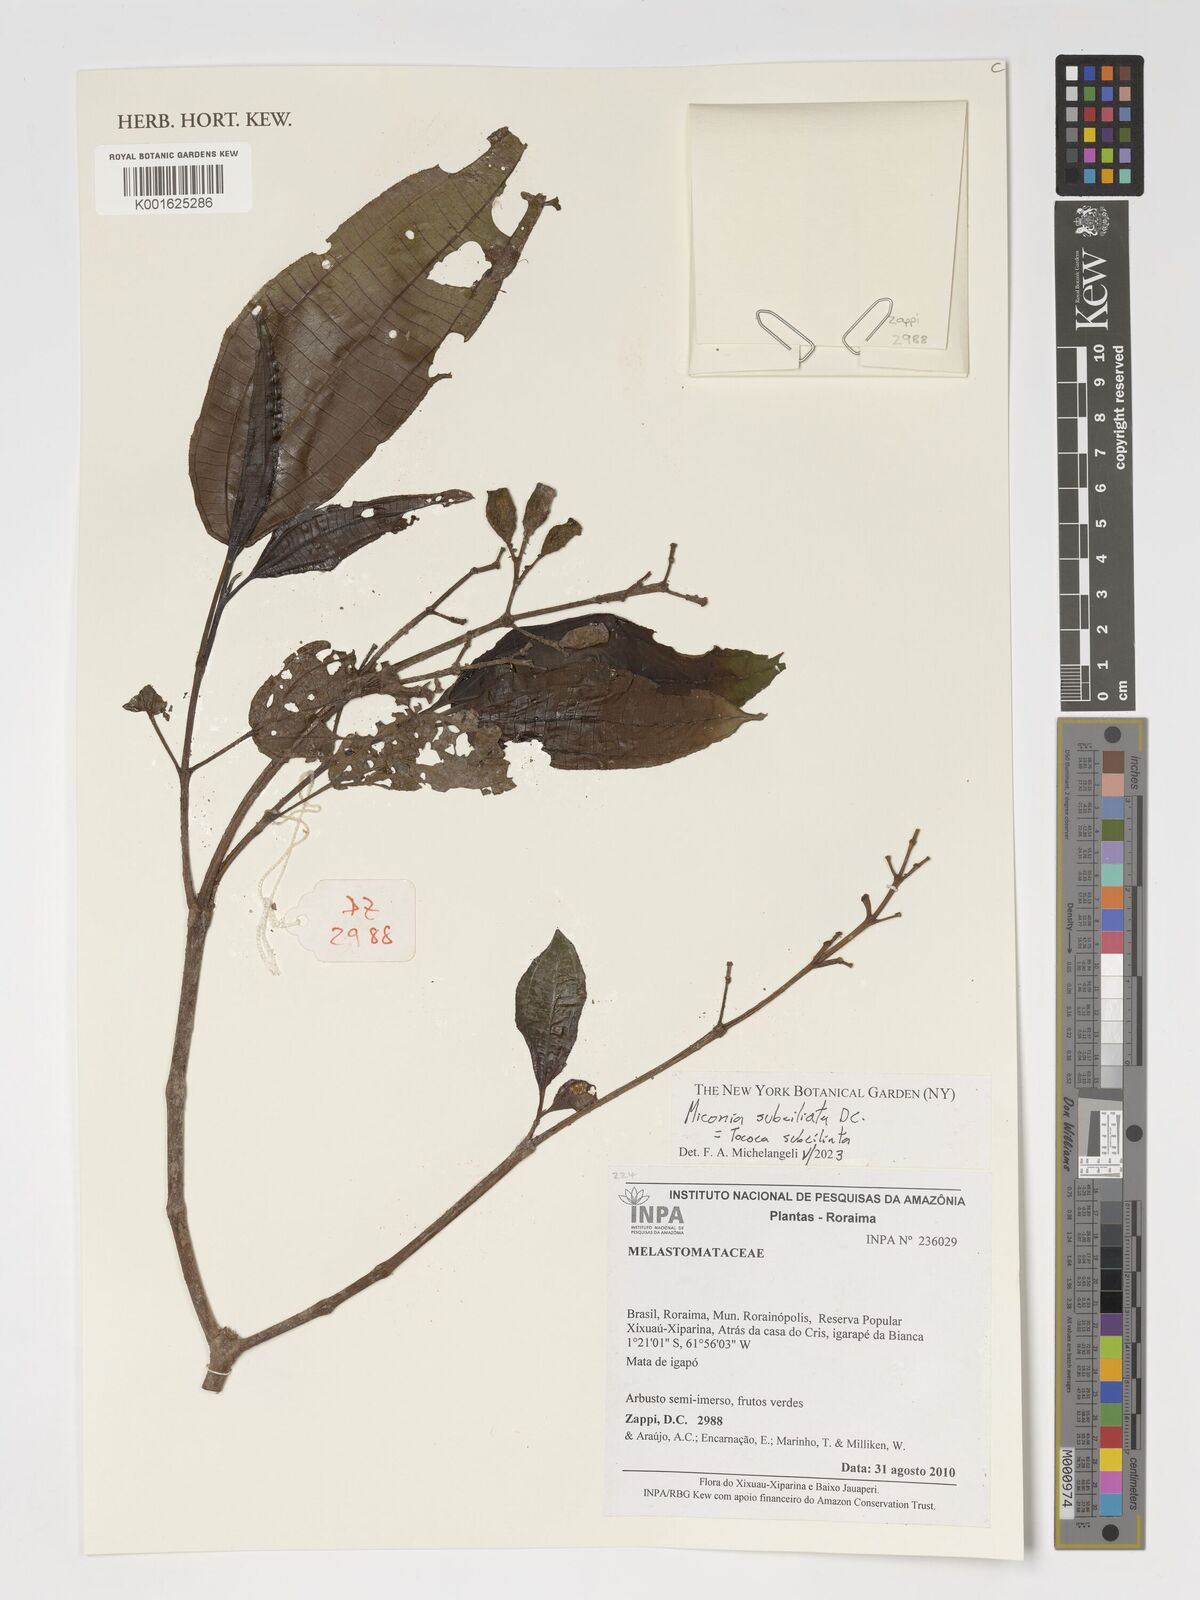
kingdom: Plantae
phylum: Tracheophyta
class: Magnoliopsida
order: Myrtales
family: Melastomataceae
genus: Miconia
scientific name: Miconia subciliata
